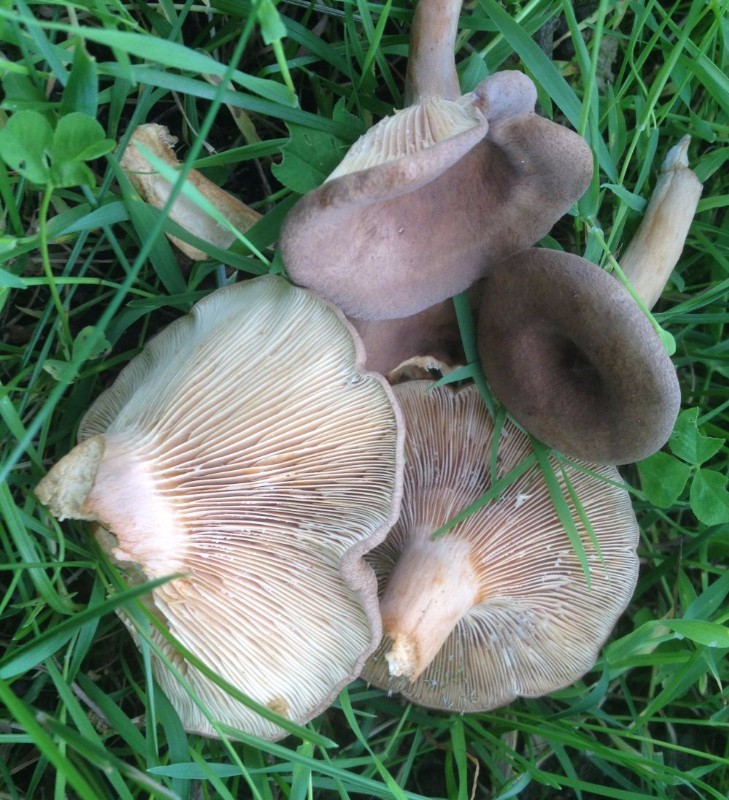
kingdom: Fungi
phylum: Basidiomycota
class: Agaricomycetes
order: Russulales
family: Russulaceae
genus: Lactarius
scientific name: Lactarius quietus
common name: ege-mælkehat
